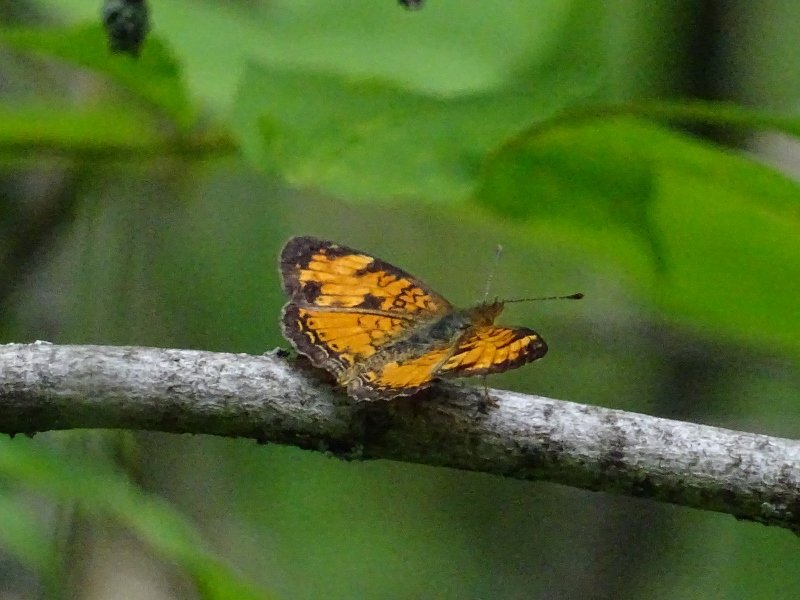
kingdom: Animalia
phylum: Arthropoda
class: Insecta
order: Lepidoptera
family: Nymphalidae
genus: Phyciodes
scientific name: Phyciodes tharos
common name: Northern Crescent
